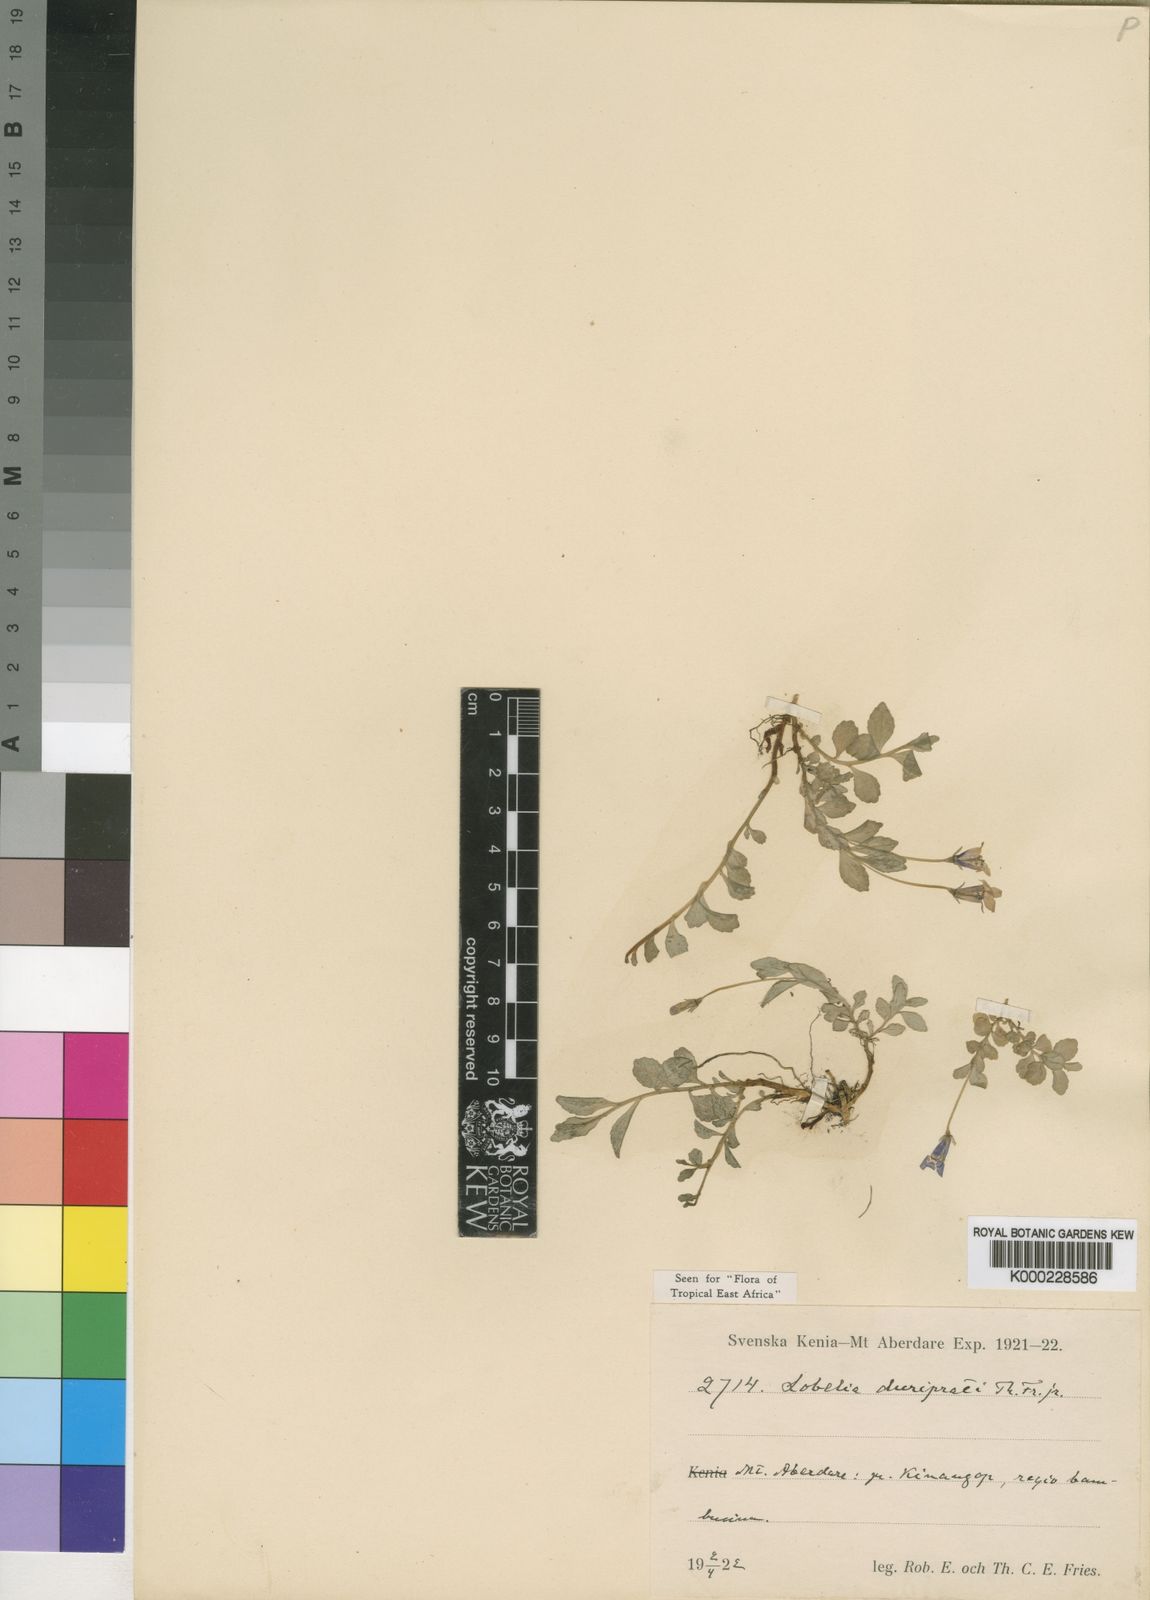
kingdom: Plantae
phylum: Tracheophyta
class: Magnoliopsida
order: Asterales
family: Campanulaceae
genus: Lobelia
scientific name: Lobelia duriprati
